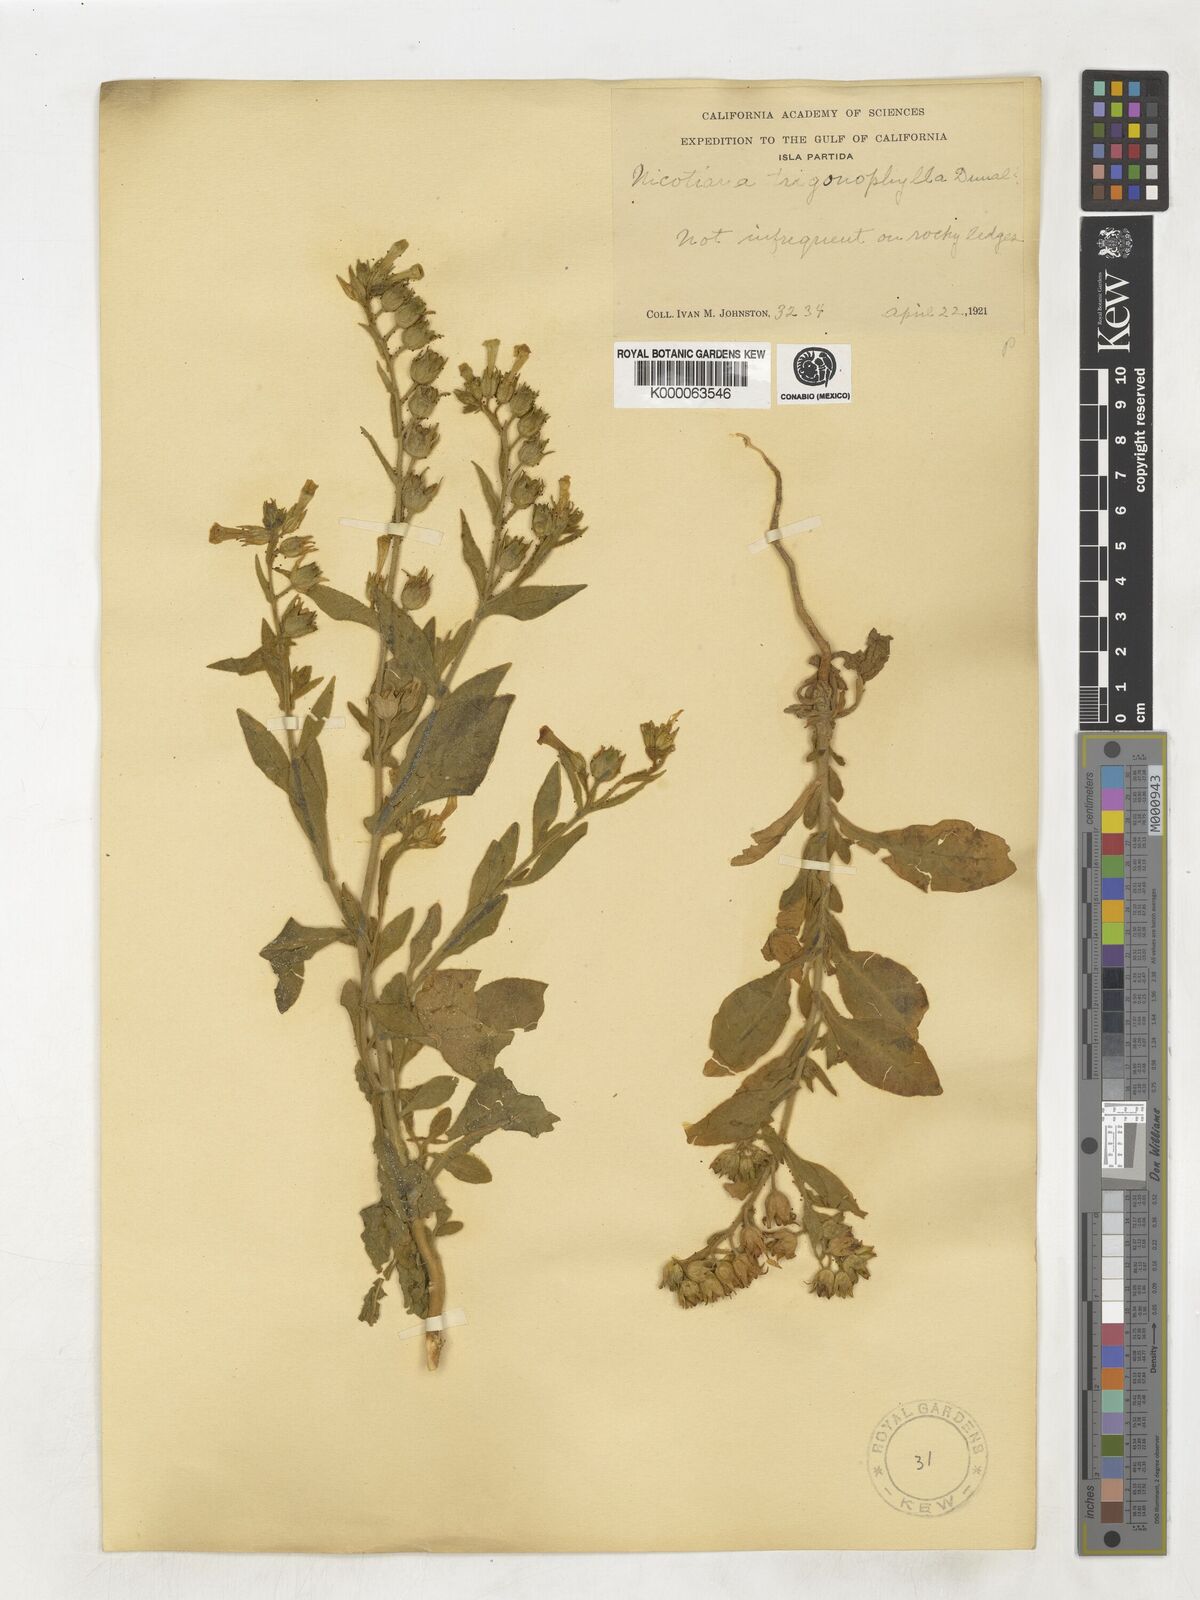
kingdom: Plantae
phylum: Tracheophyta
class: Magnoliopsida
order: Solanales
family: Solanaceae
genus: Nicotiana
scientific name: Nicotiana obtusifolia
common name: Desert tobacco
